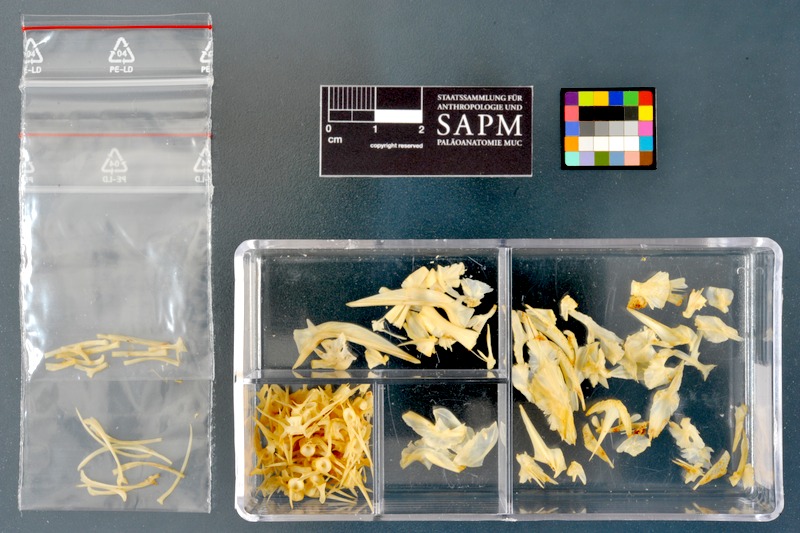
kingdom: Animalia
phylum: Chordata
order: Gadiformes
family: Lotidae
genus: Lota
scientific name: Lota lota
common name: Burbot
